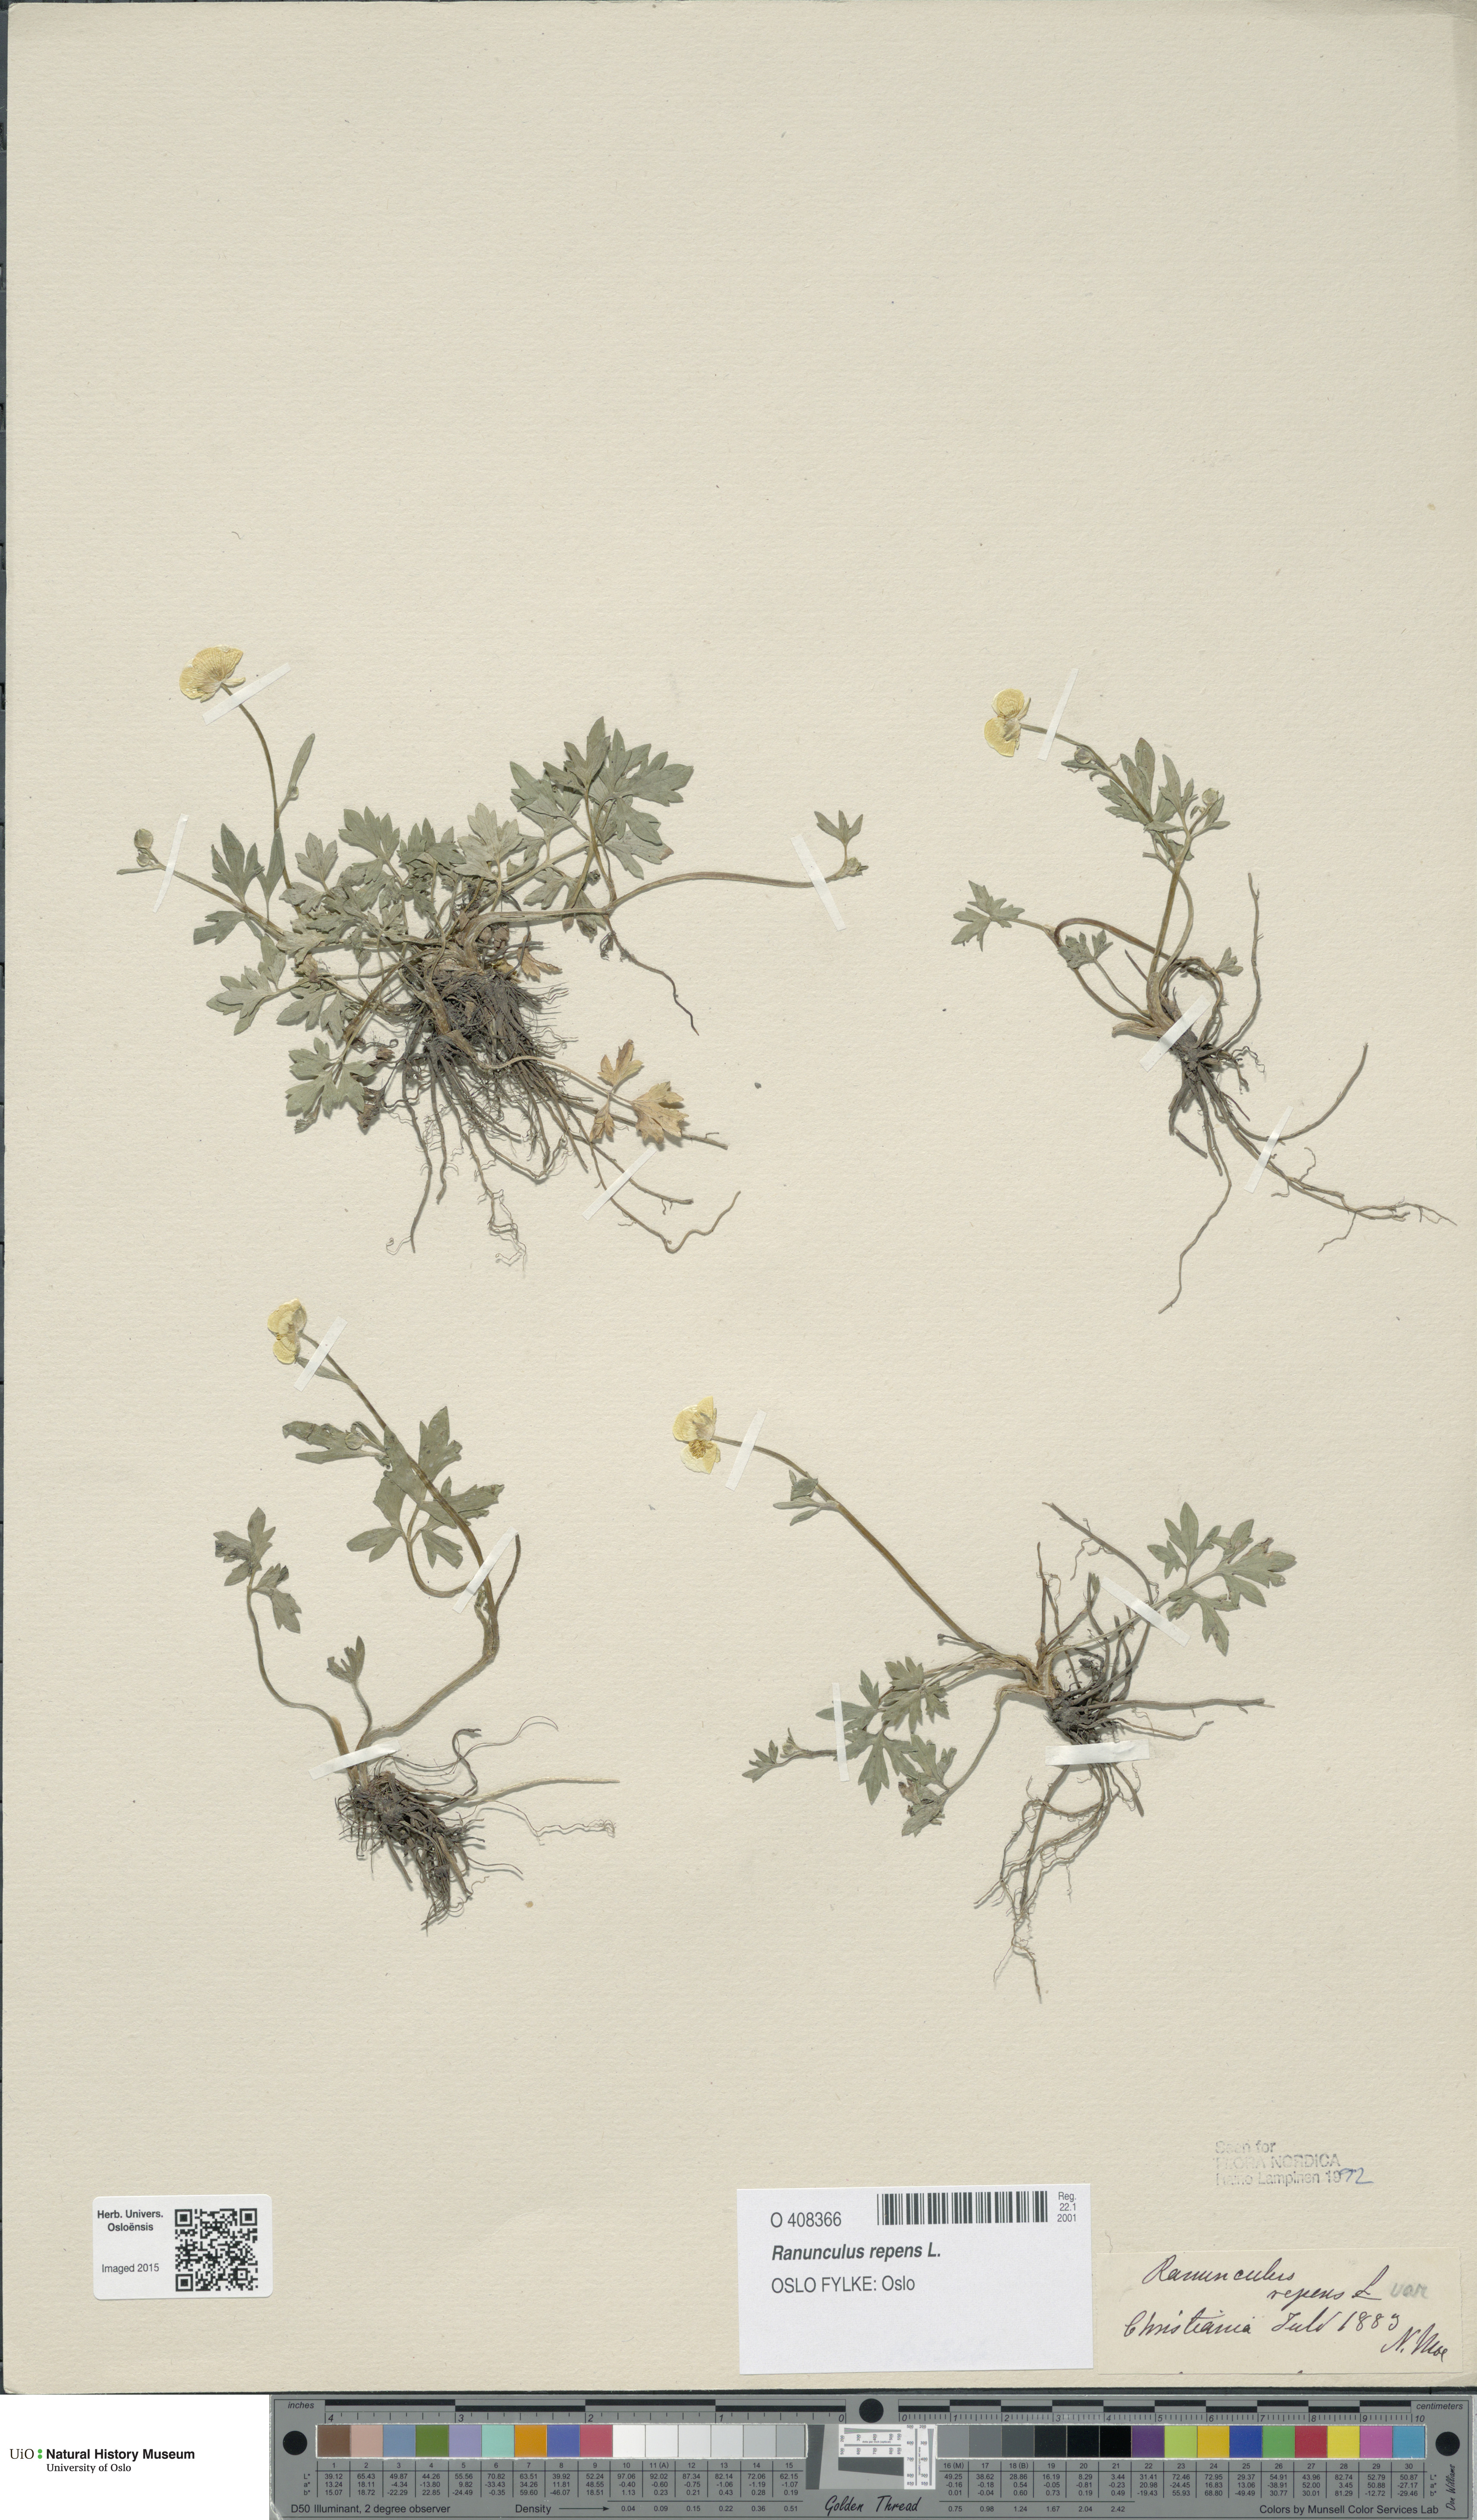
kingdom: Plantae
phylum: Tracheophyta
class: Magnoliopsida
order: Ranunculales
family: Ranunculaceae
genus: Ranunculus
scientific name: Ranunculus repens
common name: Creeping buttercup
